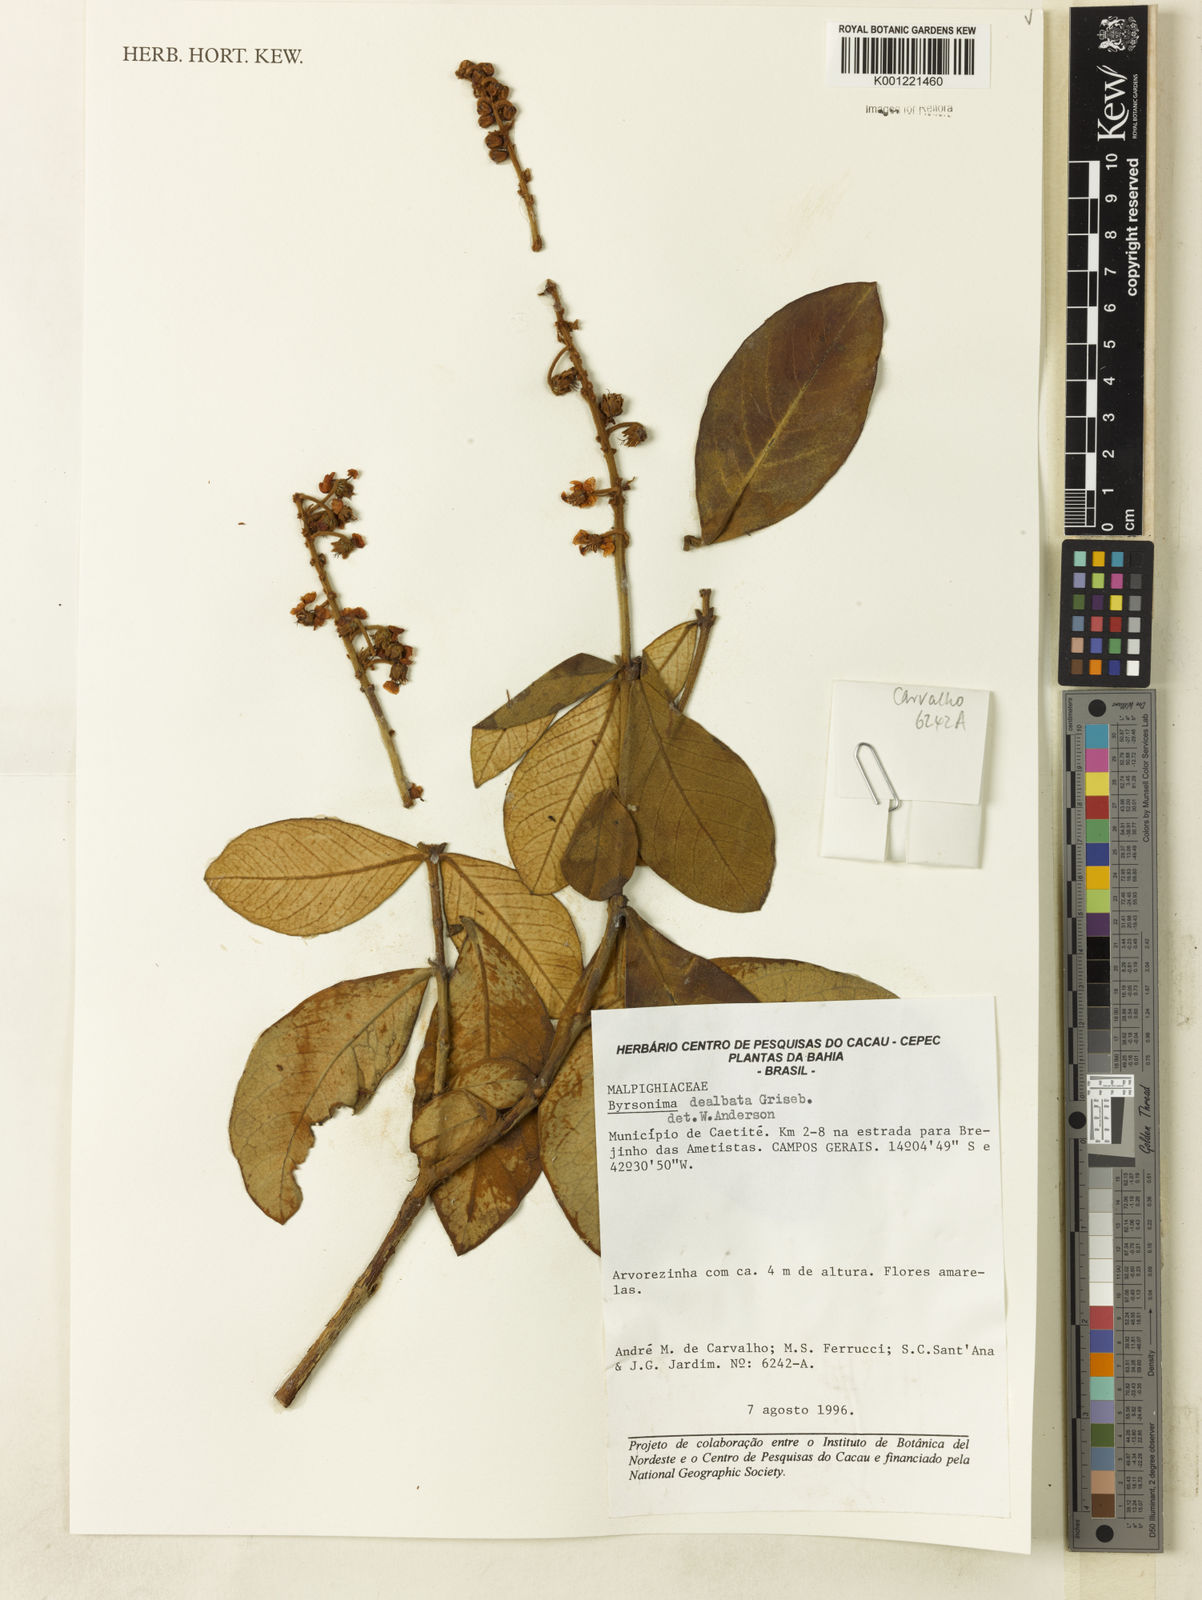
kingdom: Plantae
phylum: Tracheophyta
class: Magnoliopsida
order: Malpighiales
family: Malpighiaceae
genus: Byrsonima
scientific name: Byrsonima dealbata
